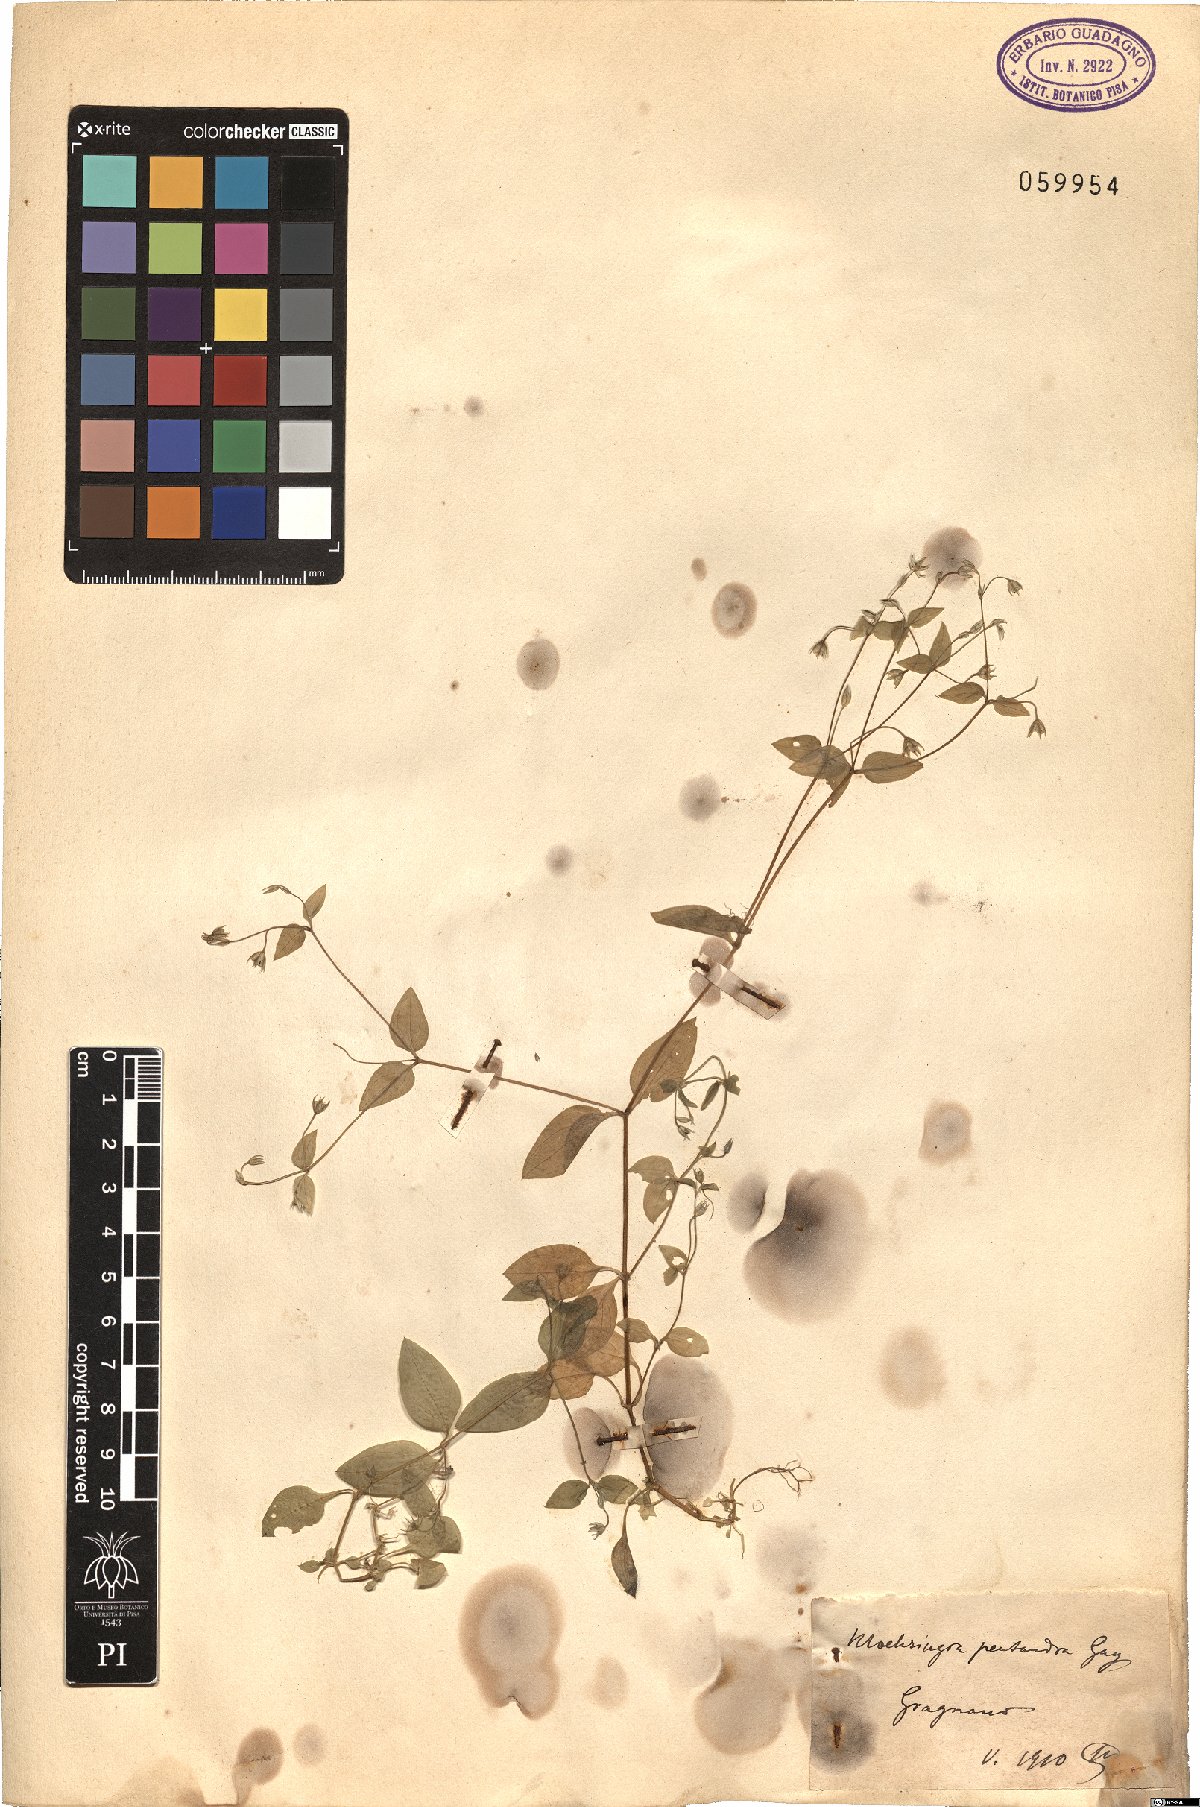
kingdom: Plantae
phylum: Tracheophyta
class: Magnoliopsida
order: Caryophyllales
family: Caryophyllaceae
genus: Moehringia
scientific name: Moehringia pentandra
